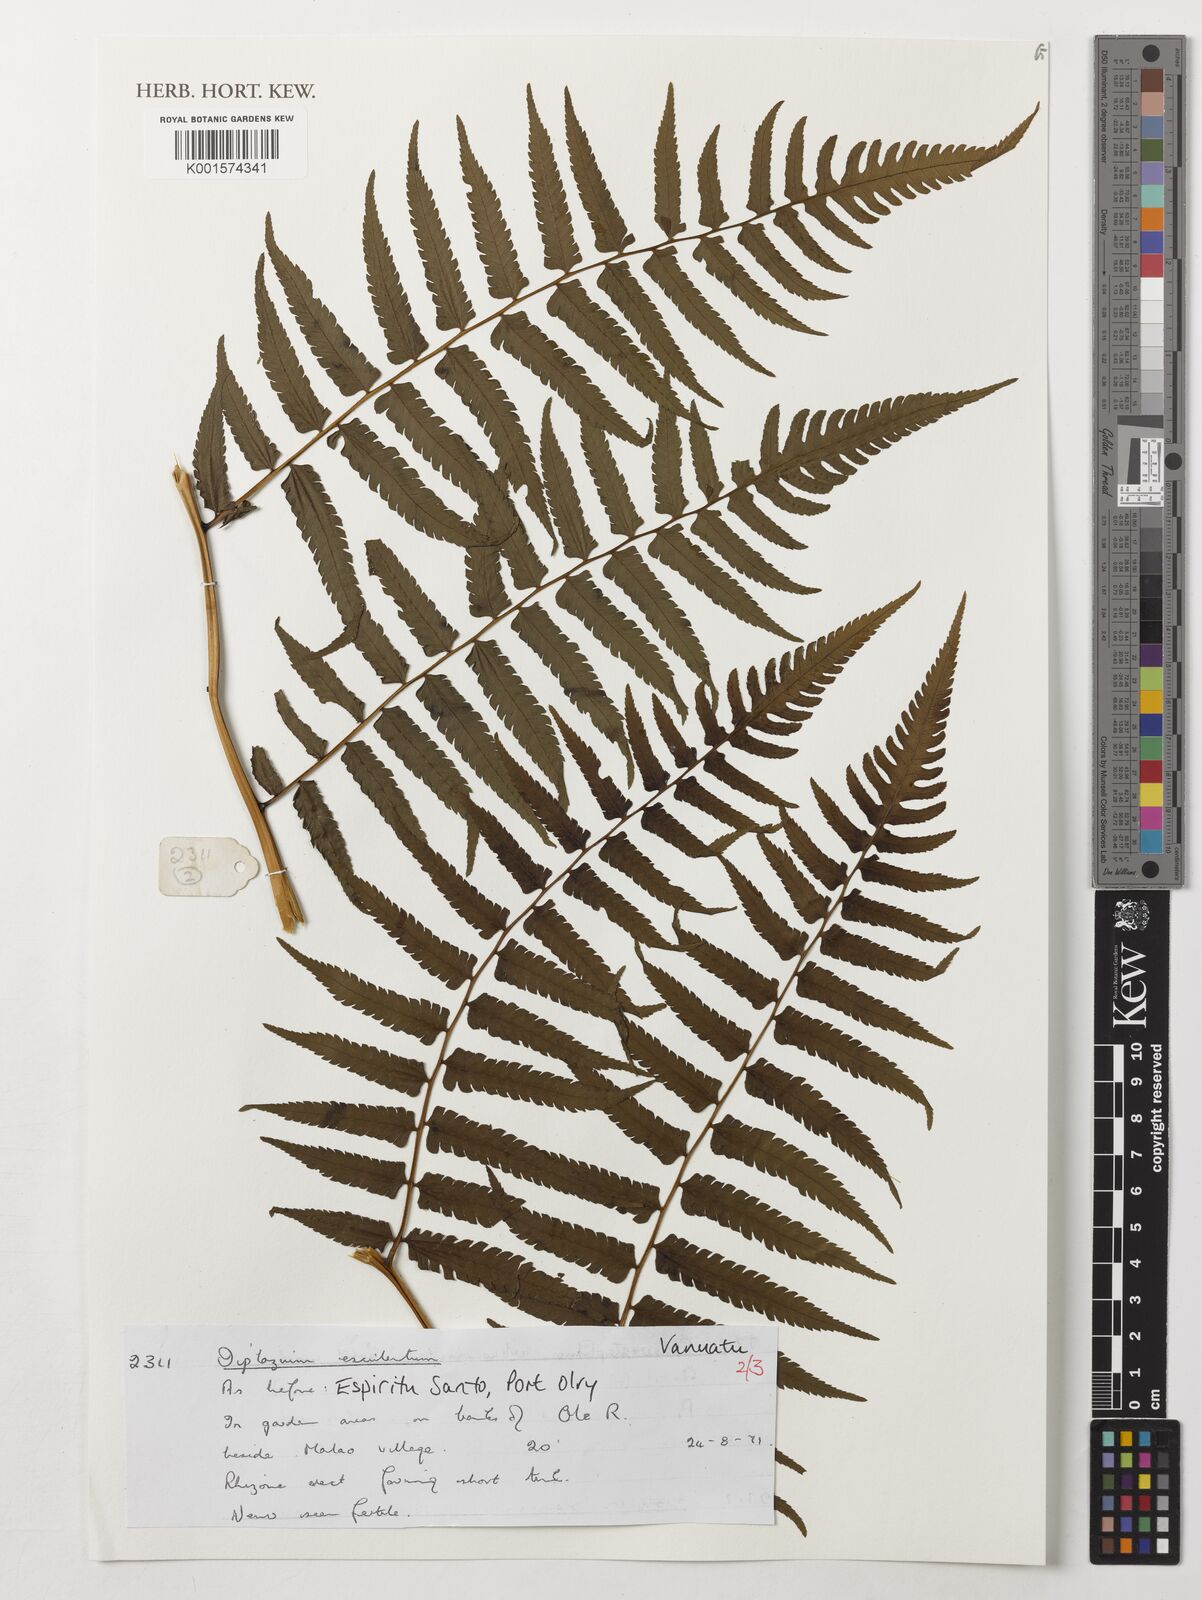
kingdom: Plantae
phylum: Tracheophyta
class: Polypodiopsida
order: Polypodiales
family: Athyriaceae
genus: Diplazium
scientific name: Diplazium esculentum
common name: Vegetable fern
